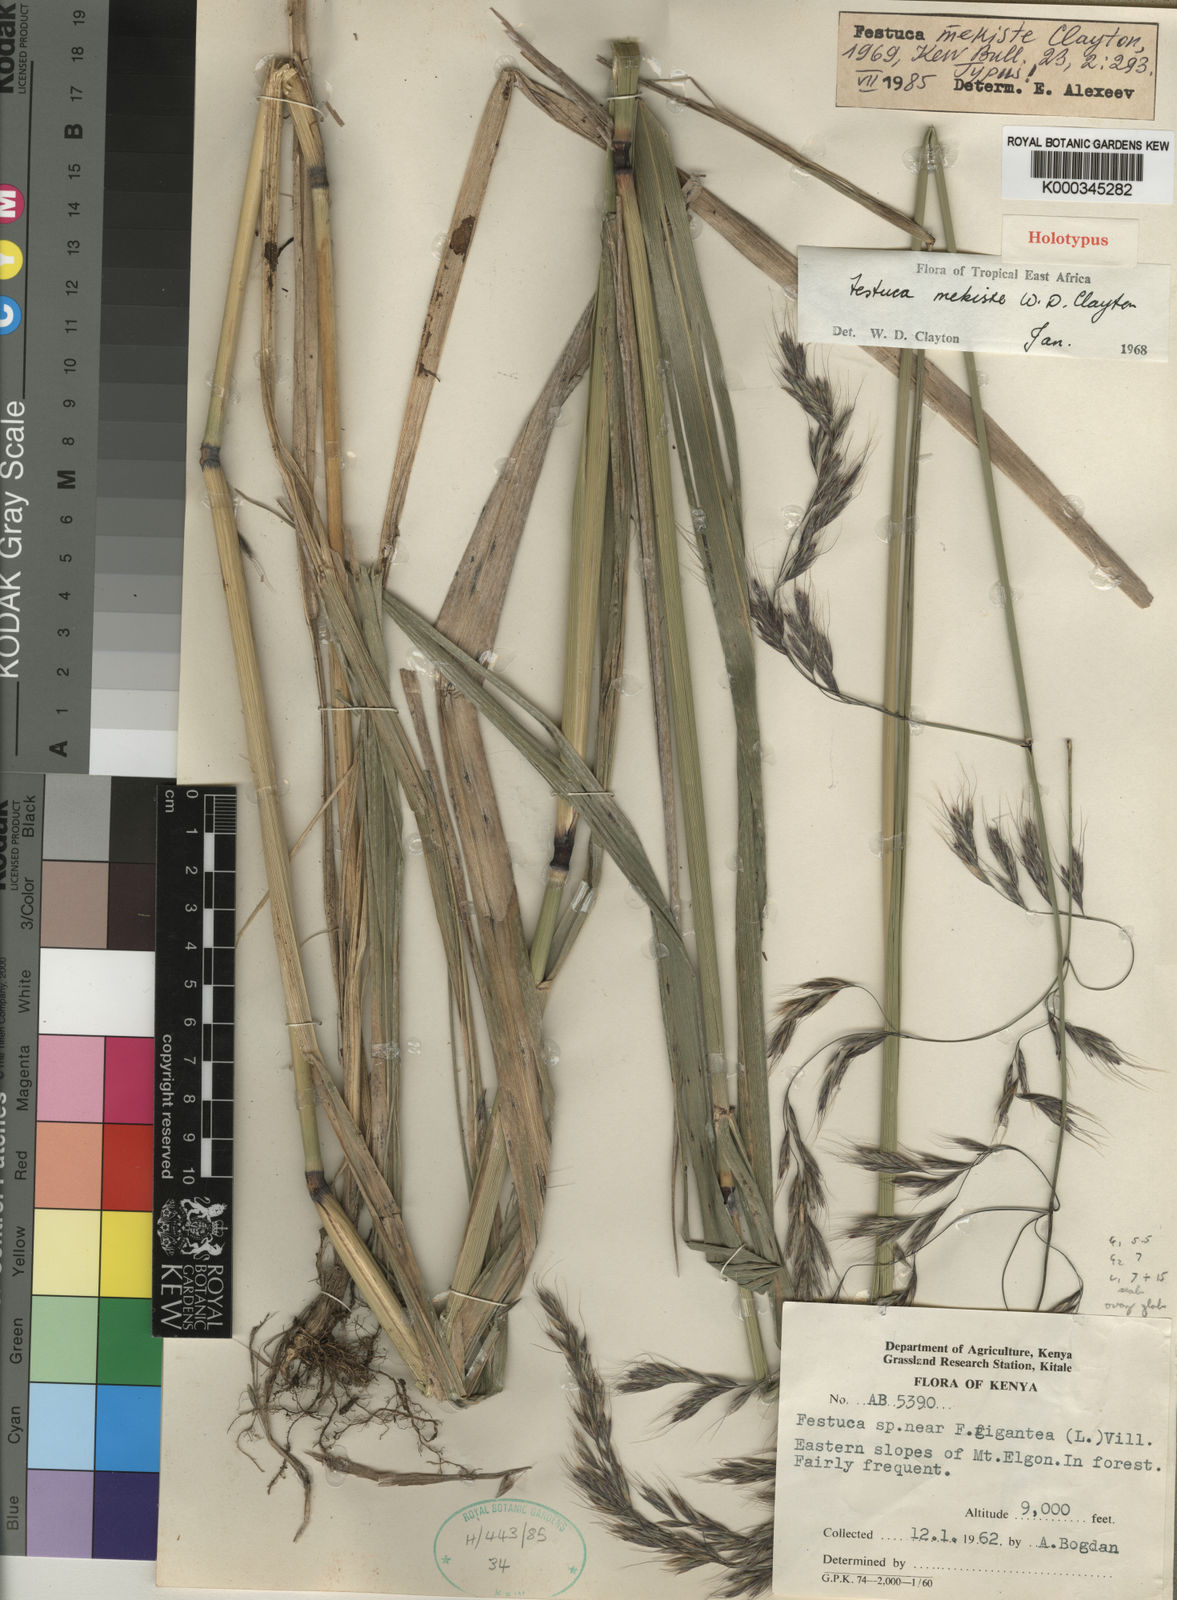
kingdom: Plantae
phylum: Tracheophyta
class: Liliopsida
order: Poales
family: Poaceae
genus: Festuca
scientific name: Festuca mekiste
